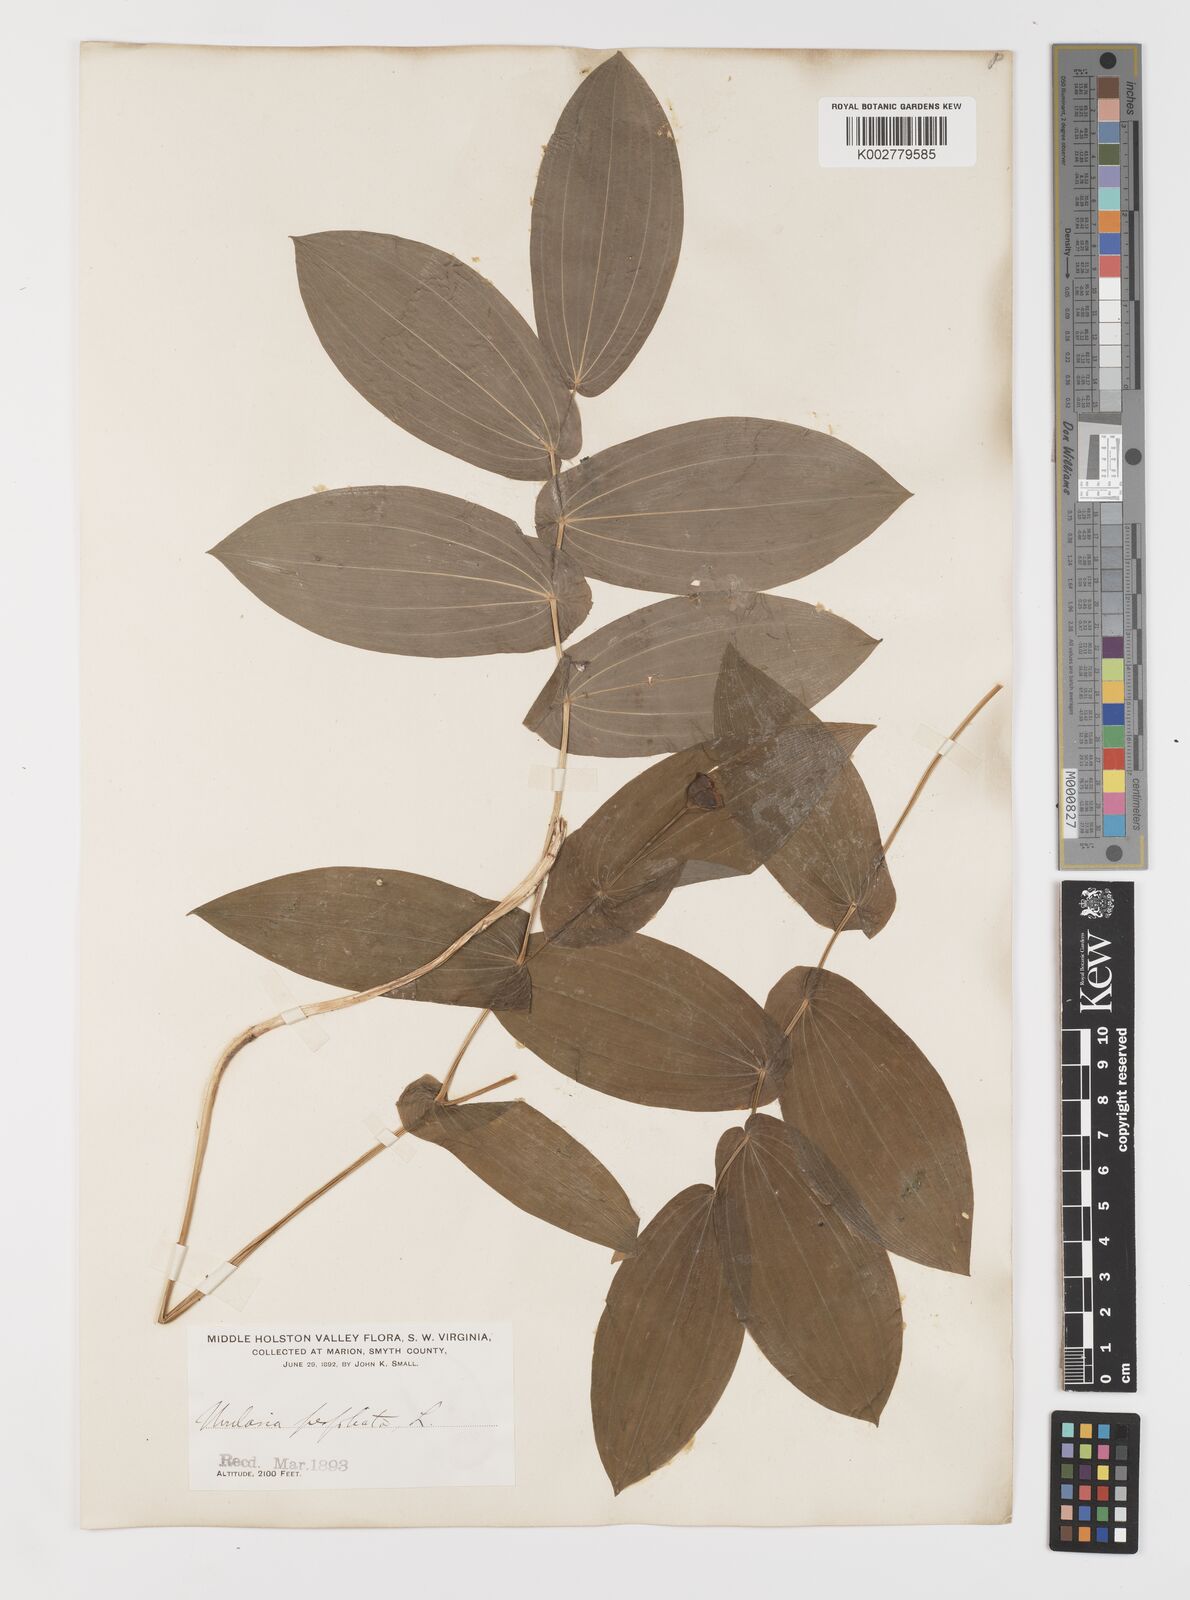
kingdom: Plantae
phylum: Tracheophyta
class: Liliopsida
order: Liliales
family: Colchicaceae
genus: Uvularia
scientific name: Uvularia perfoliata
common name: Perfoliate bellwort
